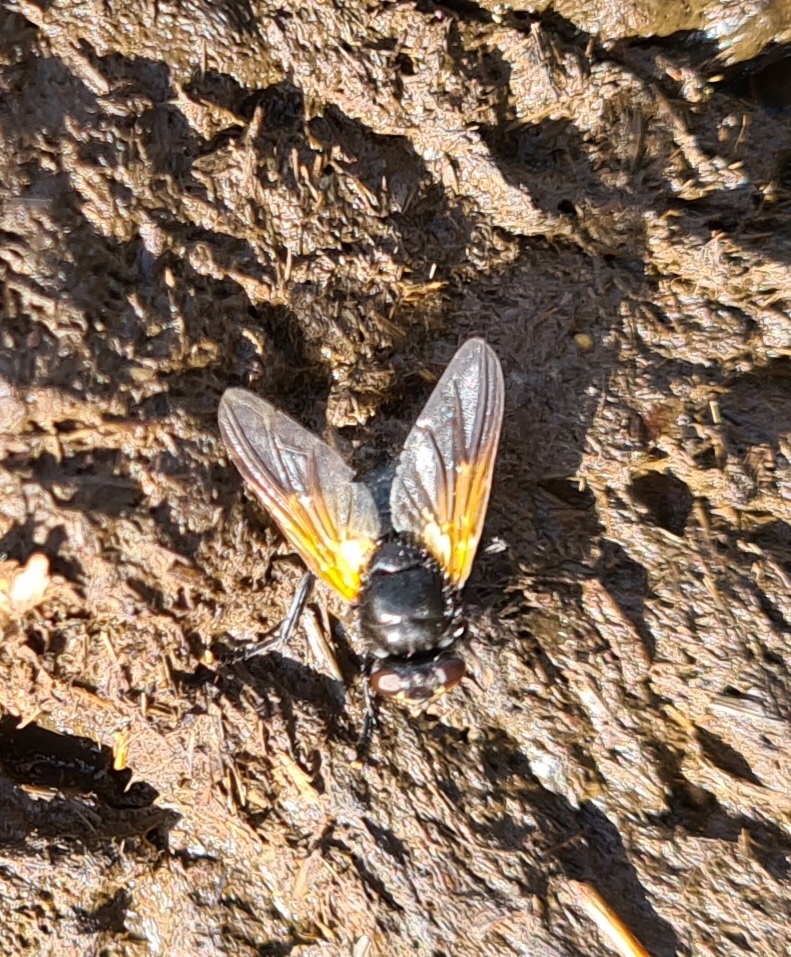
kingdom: Animalia
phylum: Arthropoda
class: Insecta
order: Diptera
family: Muscidae
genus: Mesembrina
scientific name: Mesembrina meridiana
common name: Gulvinget flue
